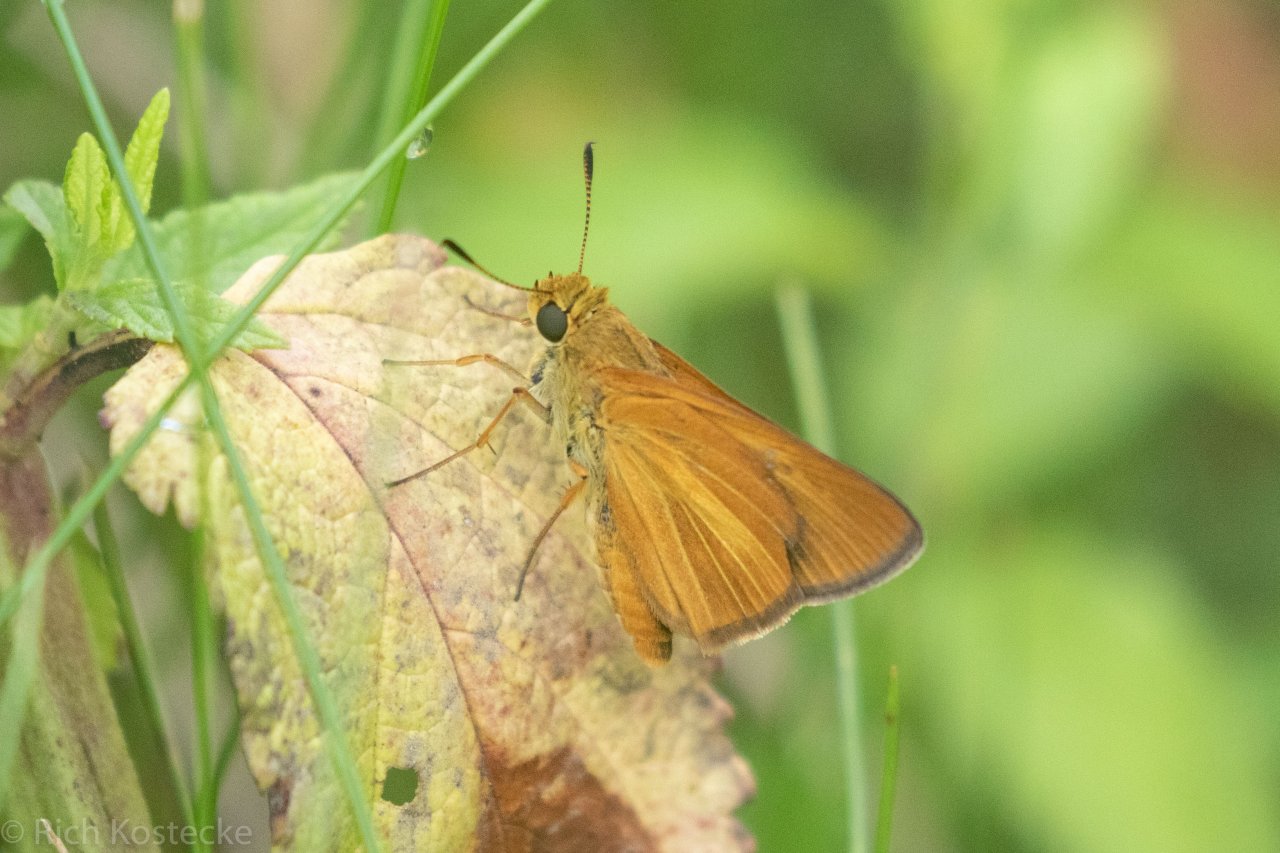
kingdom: Animalia
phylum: Arthropoda
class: Insecta
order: Lepidoptera
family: Hesperiidae
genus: Euphyes
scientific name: Euphyes dion
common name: Dion Skipper
